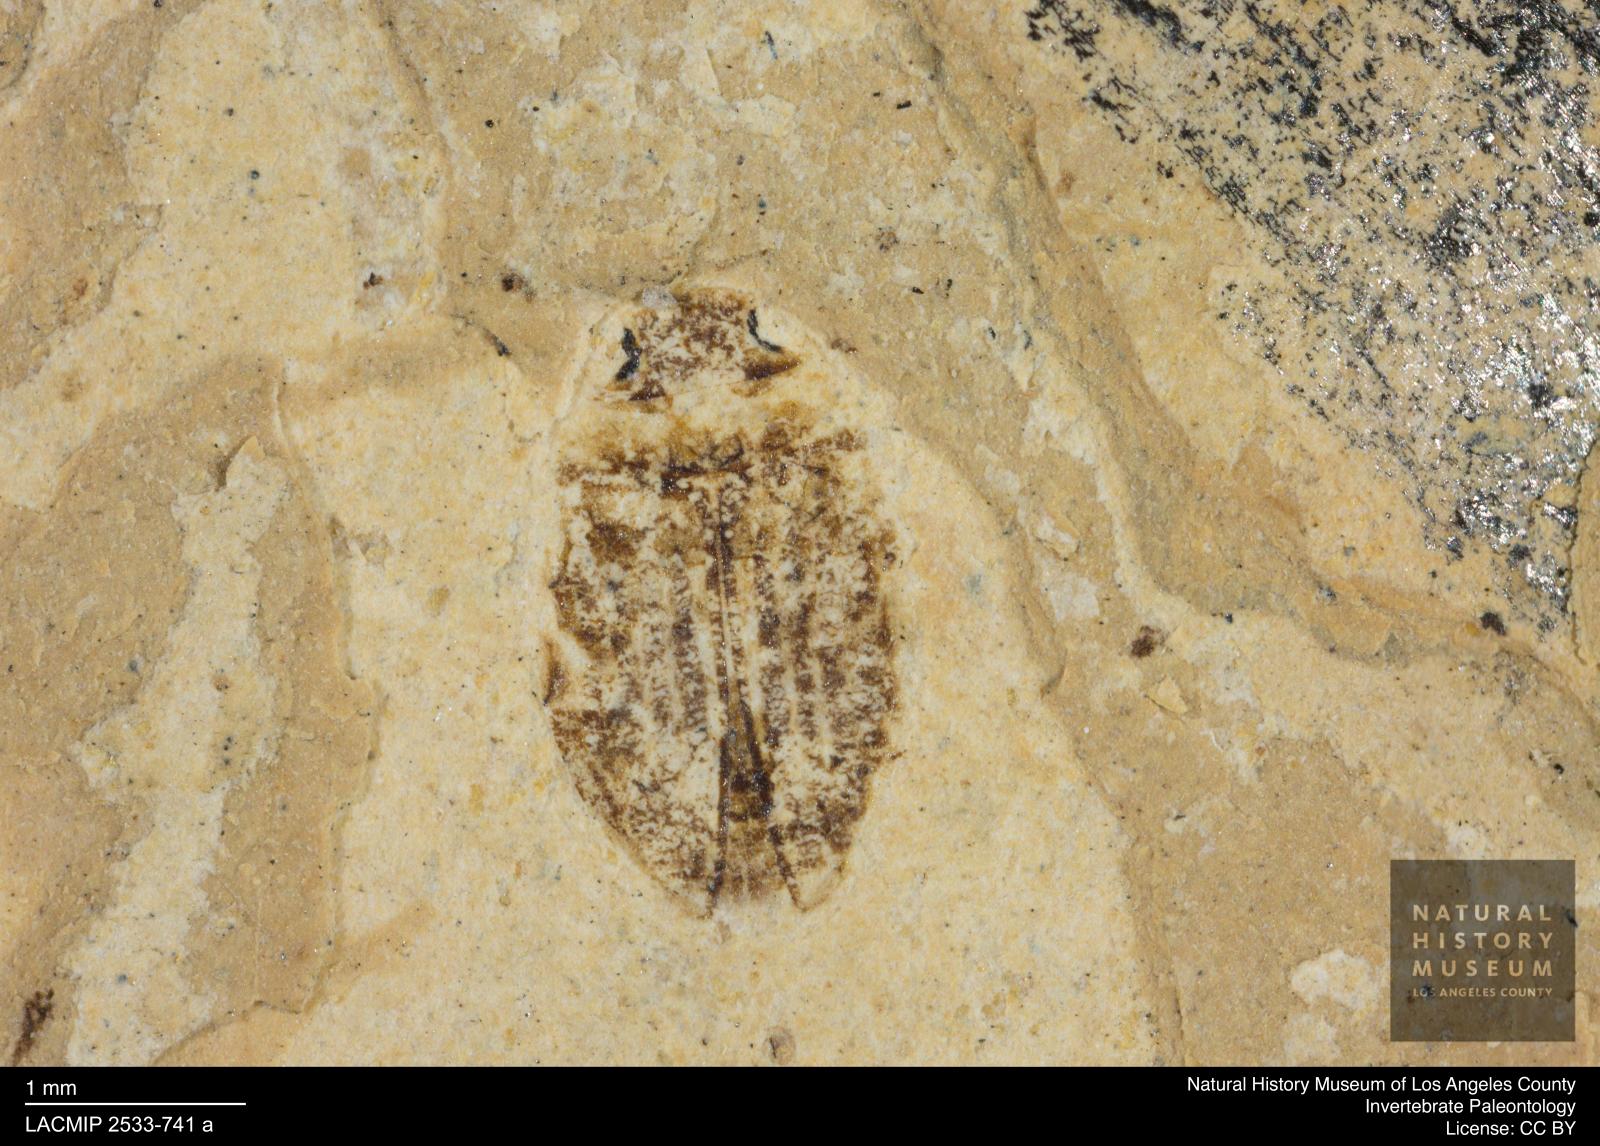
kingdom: Animalia
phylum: Arthropoda
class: Insecta
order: Coleoptera
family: Dytiscidae
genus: Oreodytes
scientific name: Oreodytes cryptolineatus
